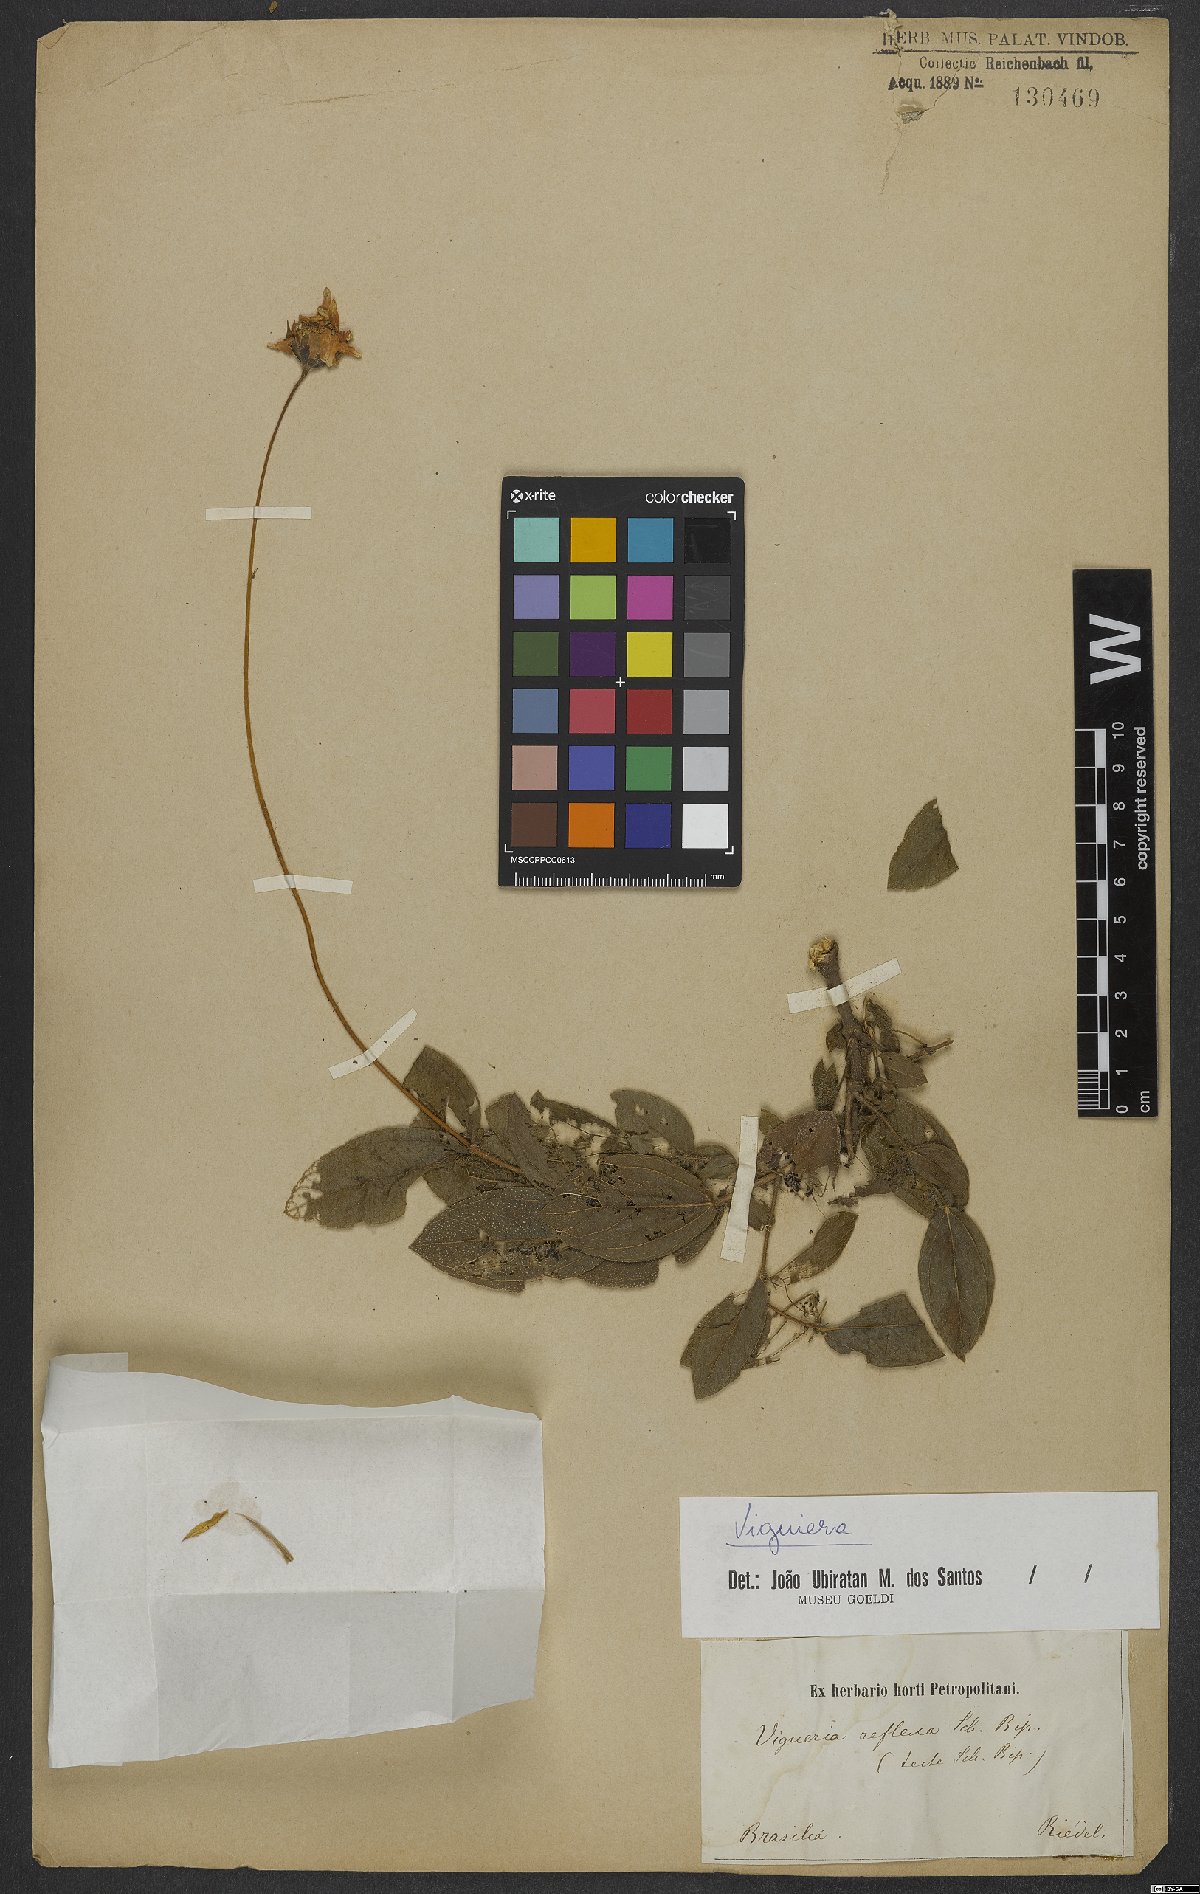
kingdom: Plantae
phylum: Tracheophyta
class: Magnoliopsida
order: Asterales
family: Asteraceae
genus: Viguiera
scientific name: Viguiera
